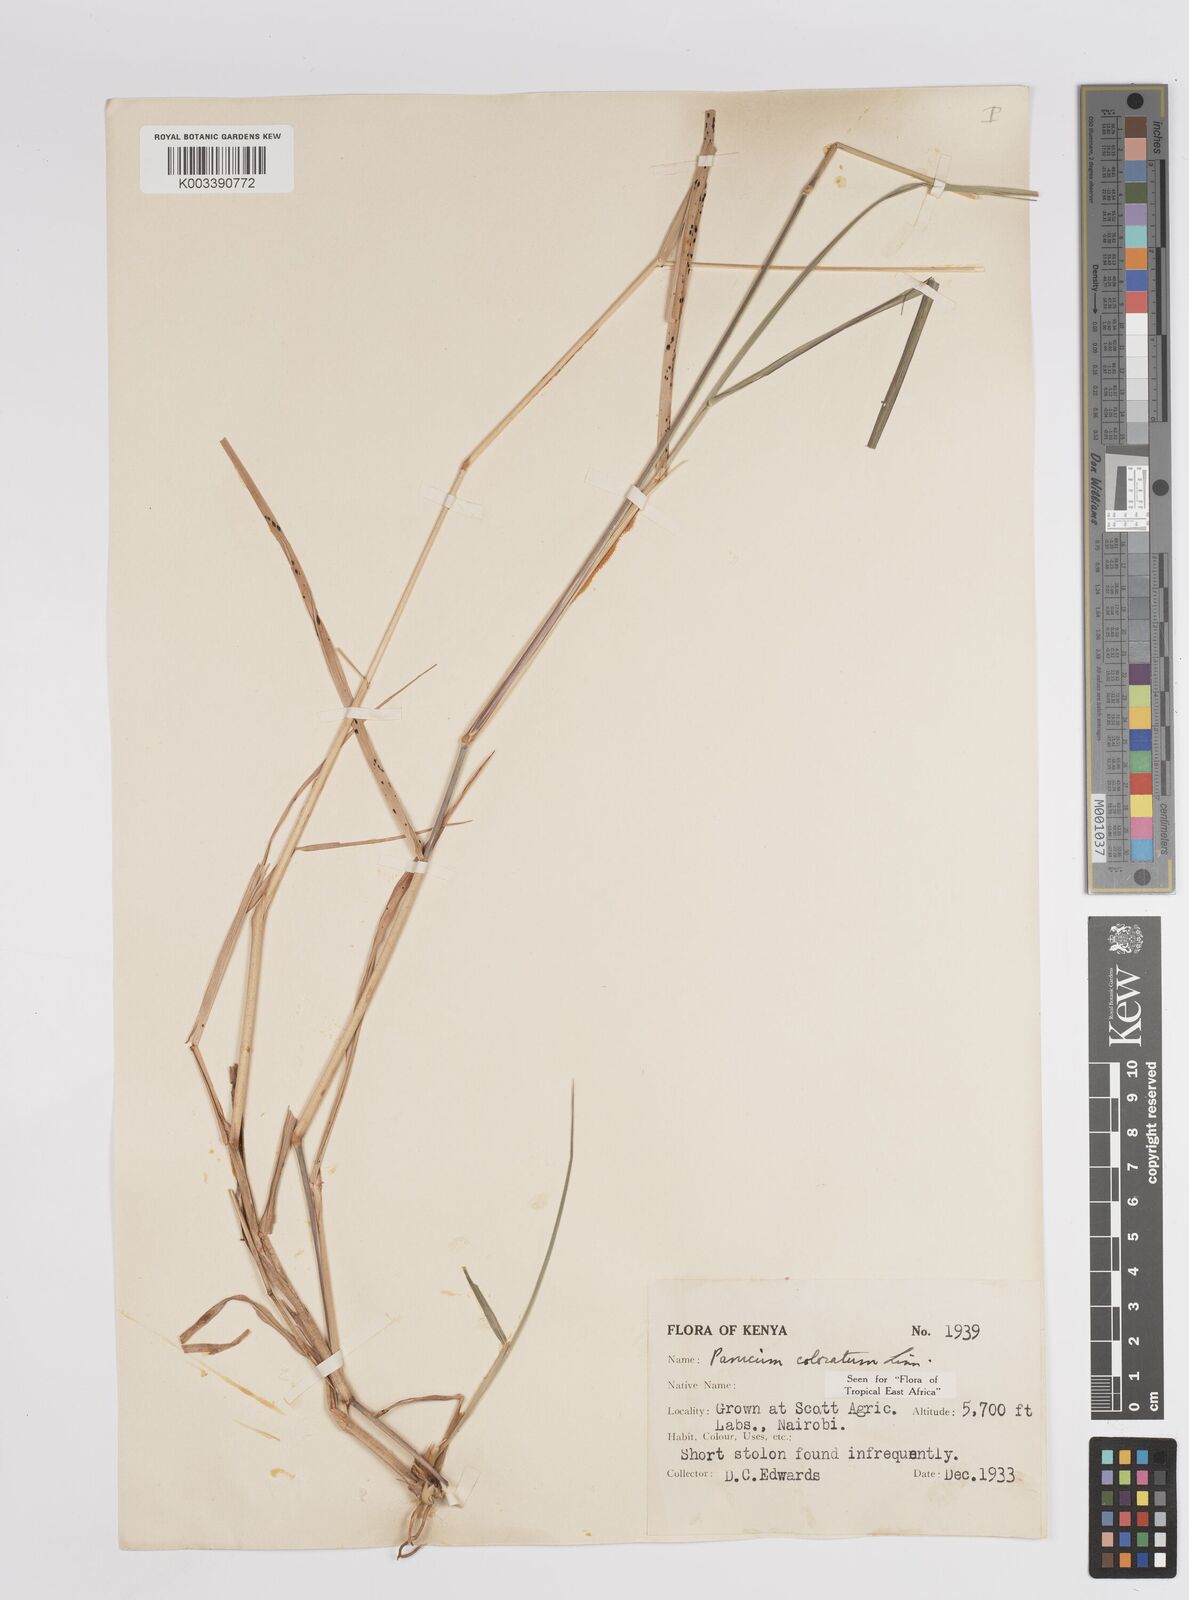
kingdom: Plantae
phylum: Tracheophyta
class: Liliopsida
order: Poales
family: Poaceae
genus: Panicum
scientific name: Panicum coloratum
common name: Kleingrass
